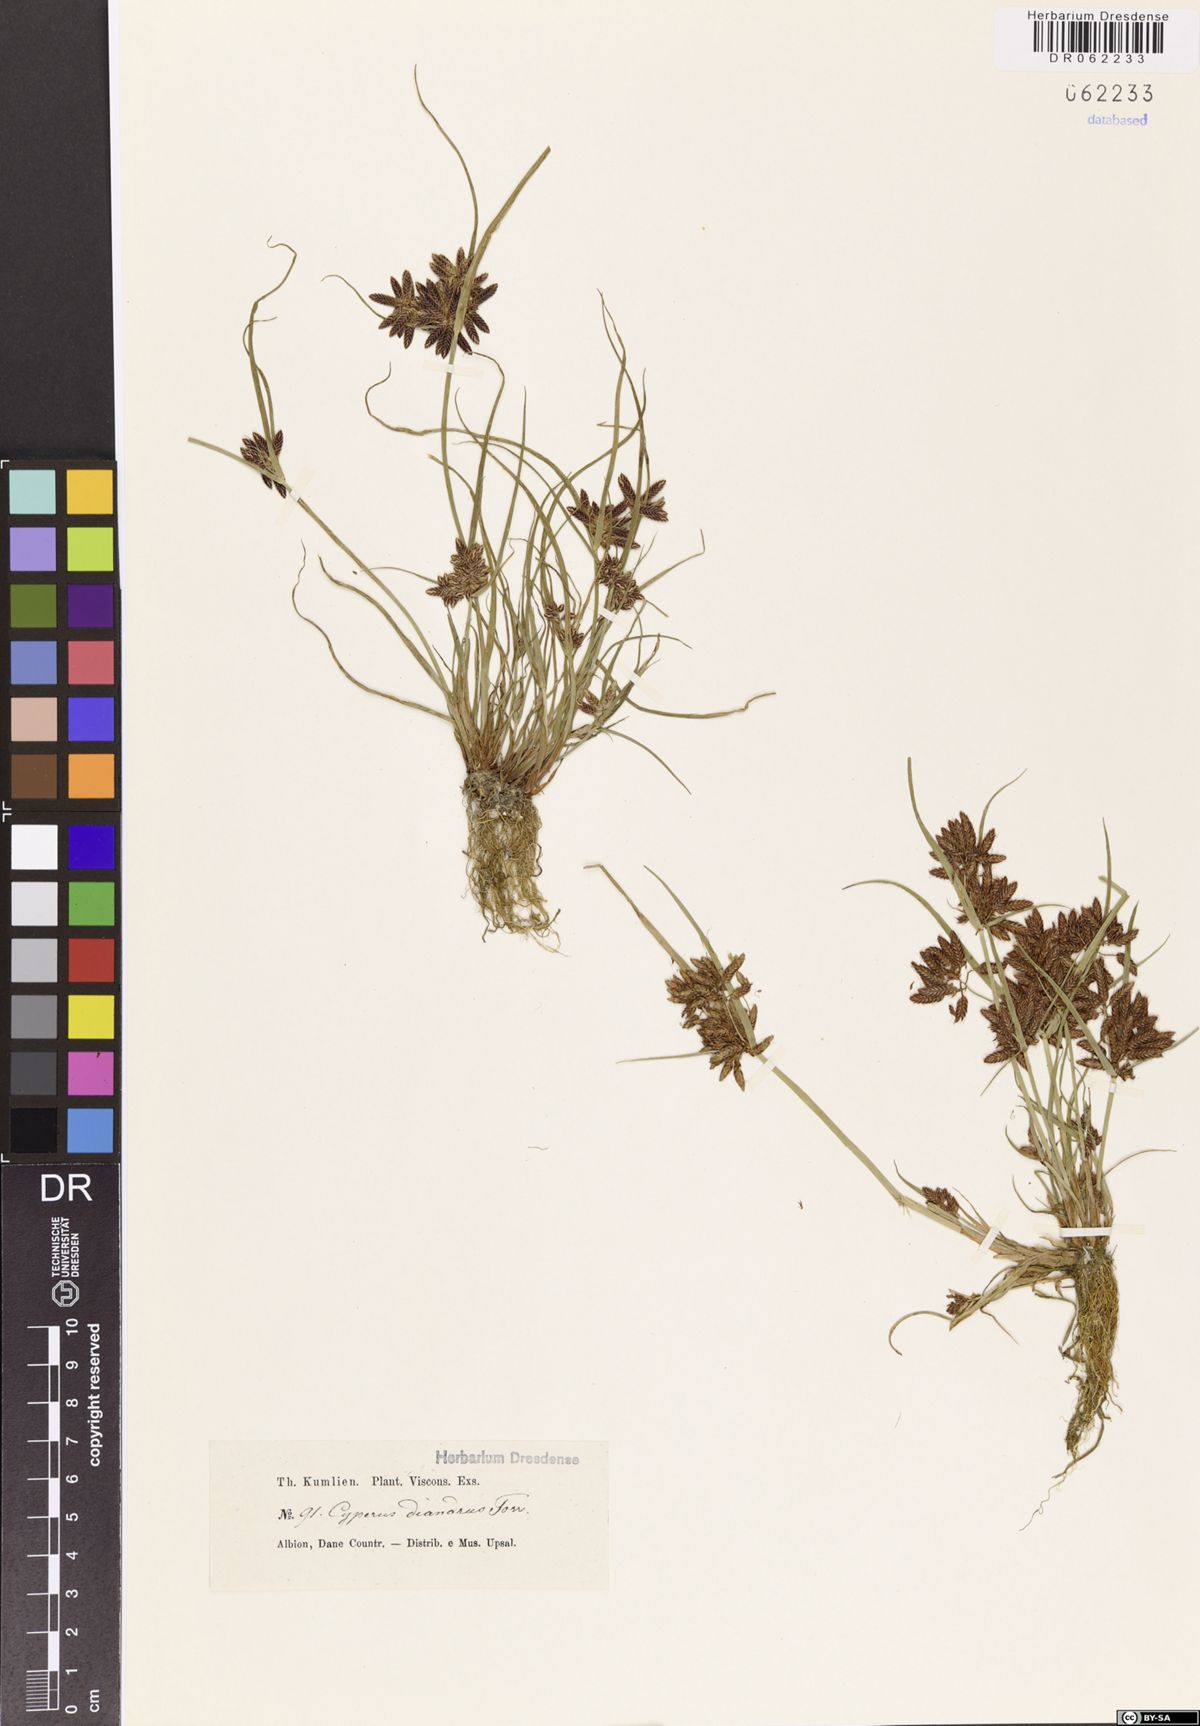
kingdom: Plantae
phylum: Tracheophyta
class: Liliopsida
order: Poales
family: Cyperaceae
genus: Cyperus
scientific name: Cyperus diandrus
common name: Low cyperus
